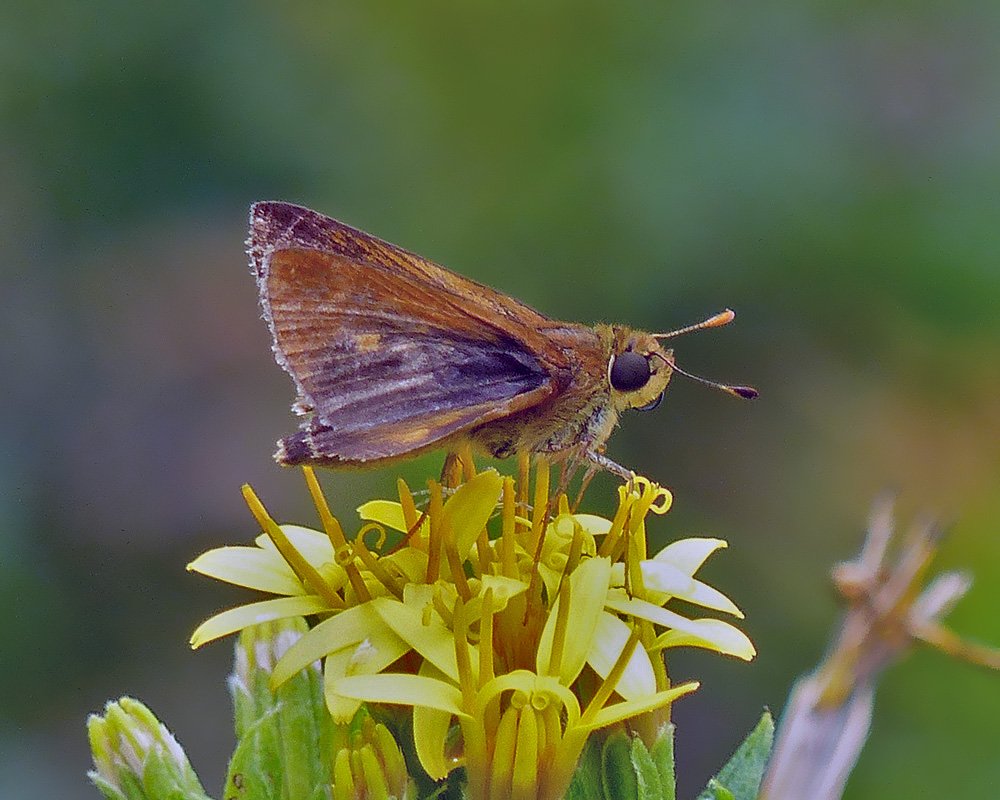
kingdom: Animalia
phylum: Arthropoda
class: Insecta
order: Lepidoptera
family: Hesperiidae
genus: Wallengrenia
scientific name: Wallengrenia otho
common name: Southern Broken-Dash
